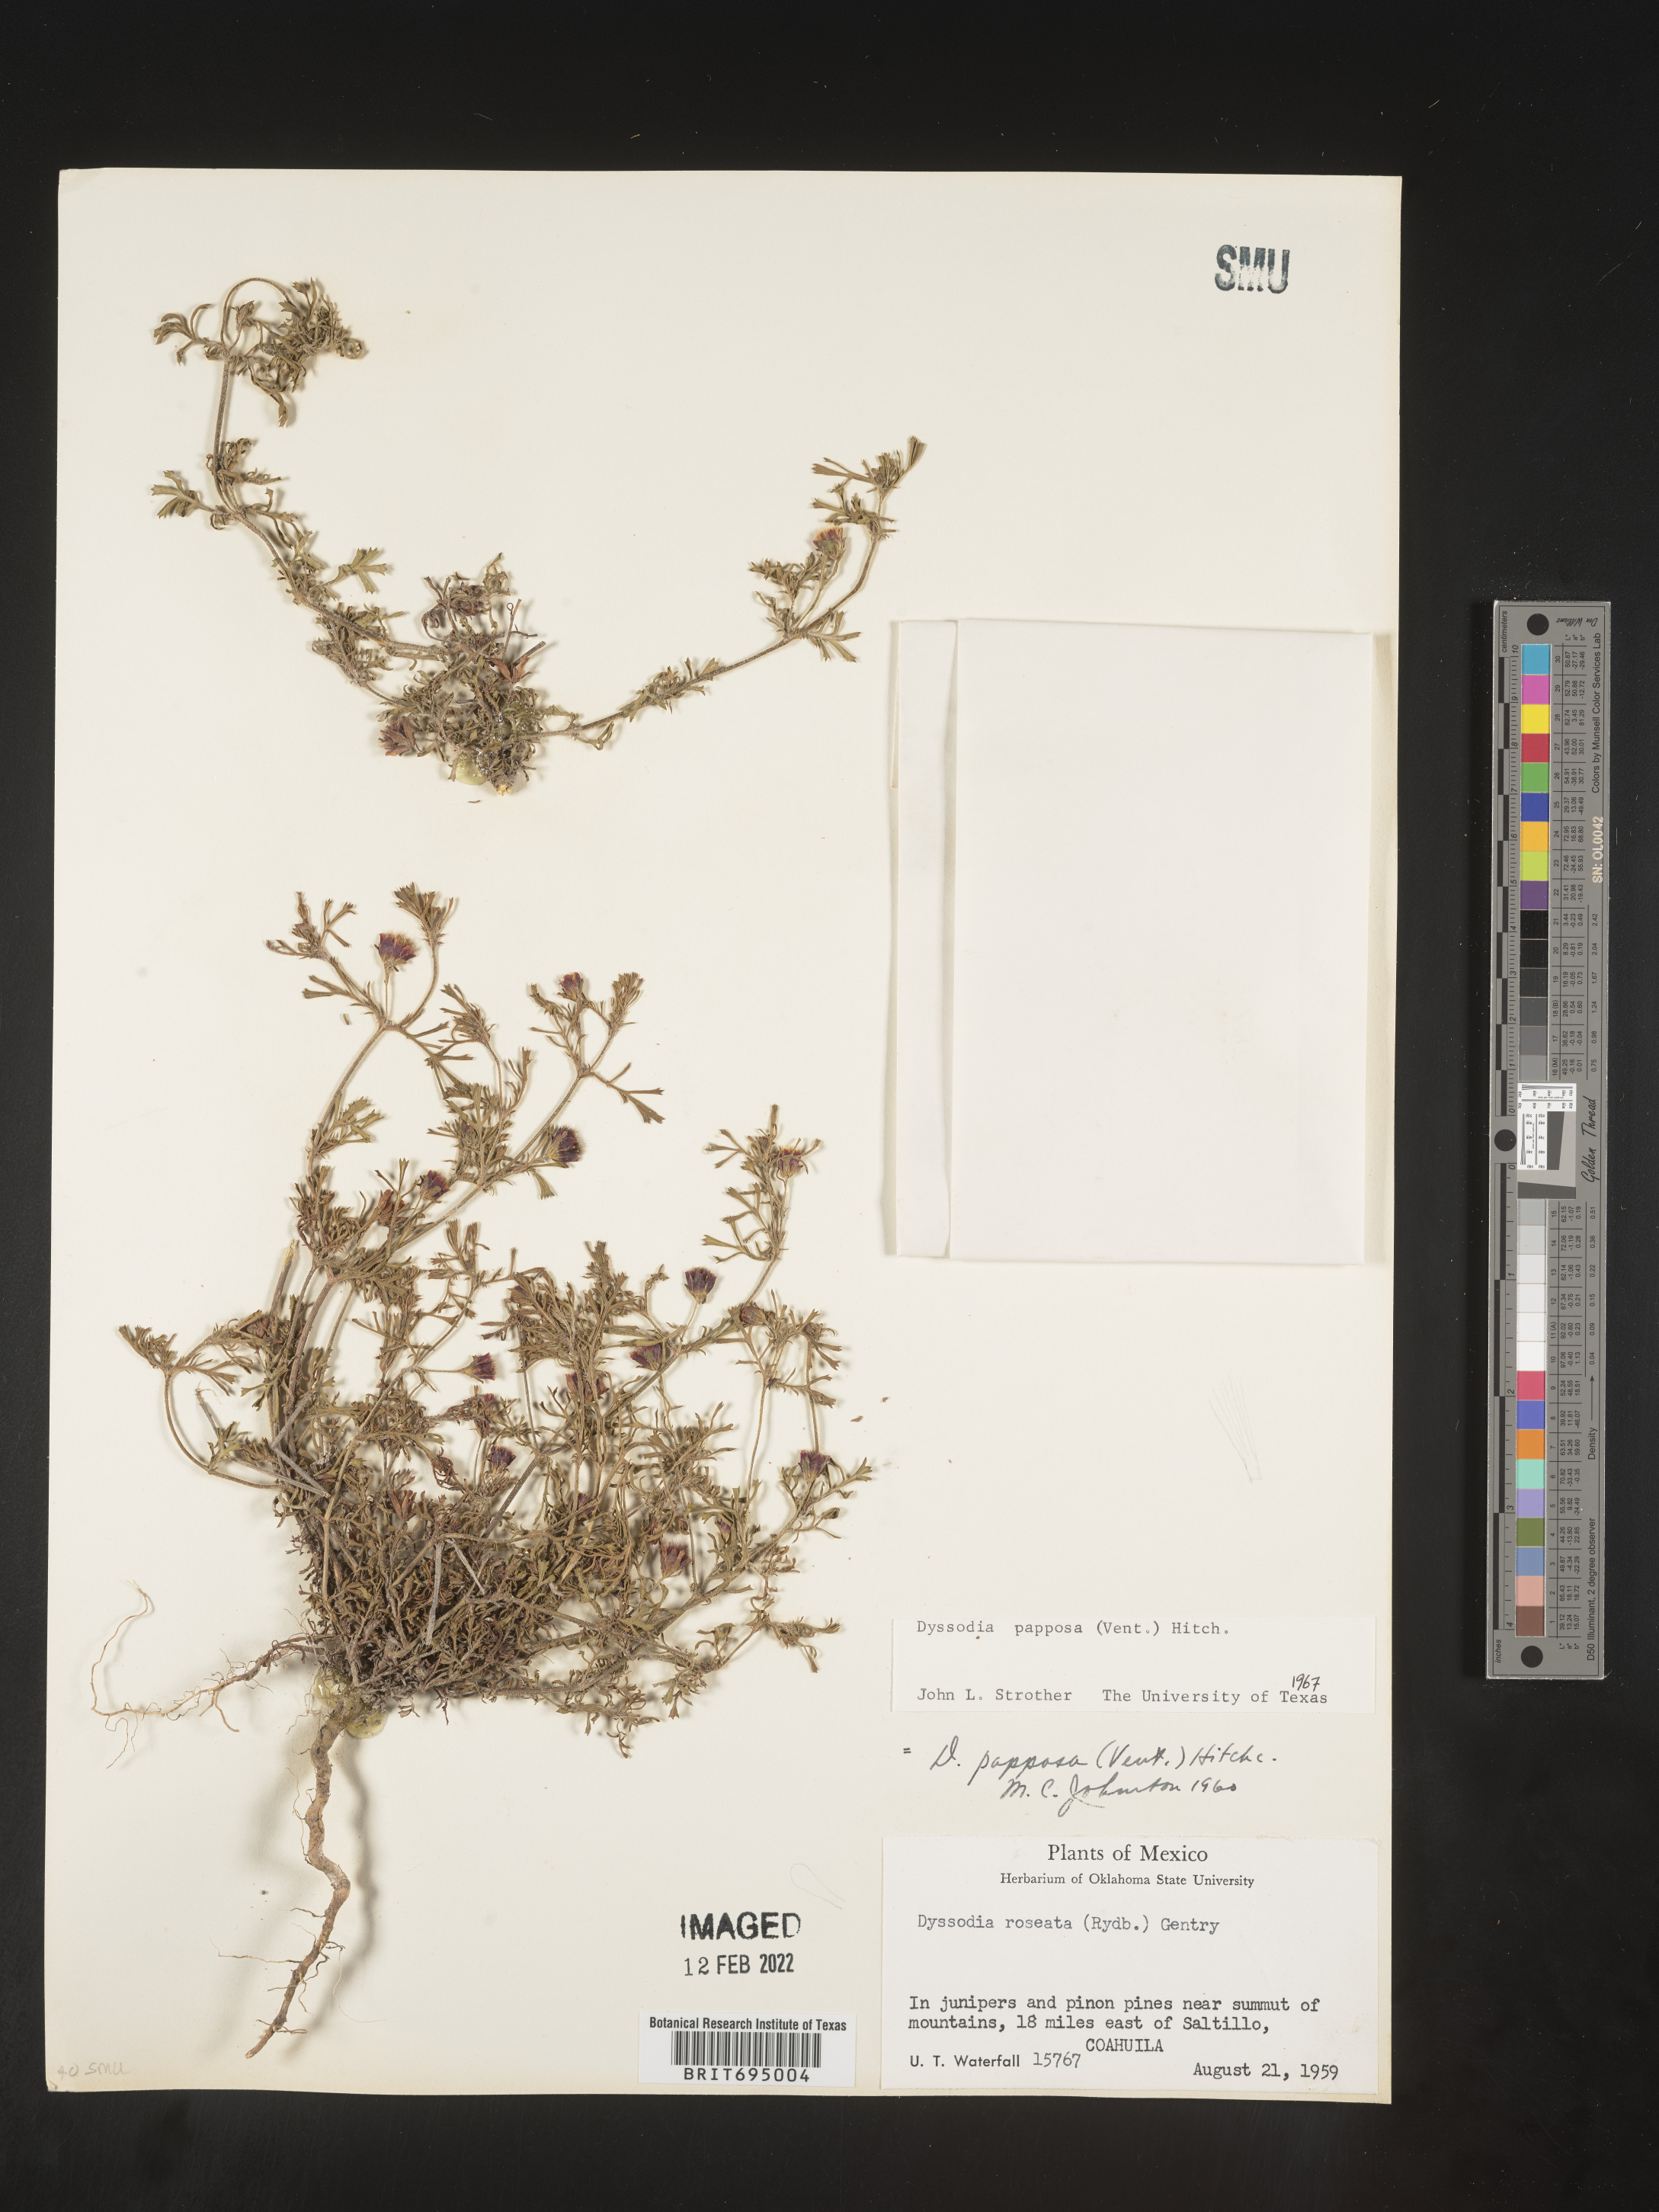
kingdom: Plantae
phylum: Tracheophyta
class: Magnoliopsida
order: Asterales
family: Asteraceae
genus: Dyssodia
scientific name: Dyssodia papposa
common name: Dogweed
